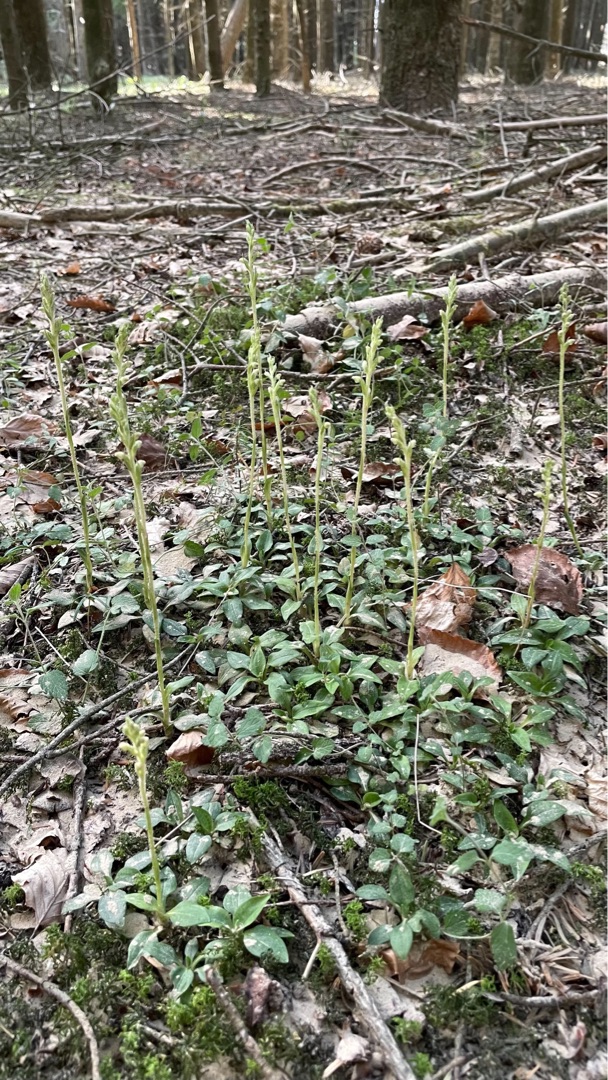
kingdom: Plantae
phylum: Tracheophyta
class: Liliopsida
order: Asparagales
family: Orchidaceae
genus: Goodyera
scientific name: Goodyera repens
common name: Knærod
